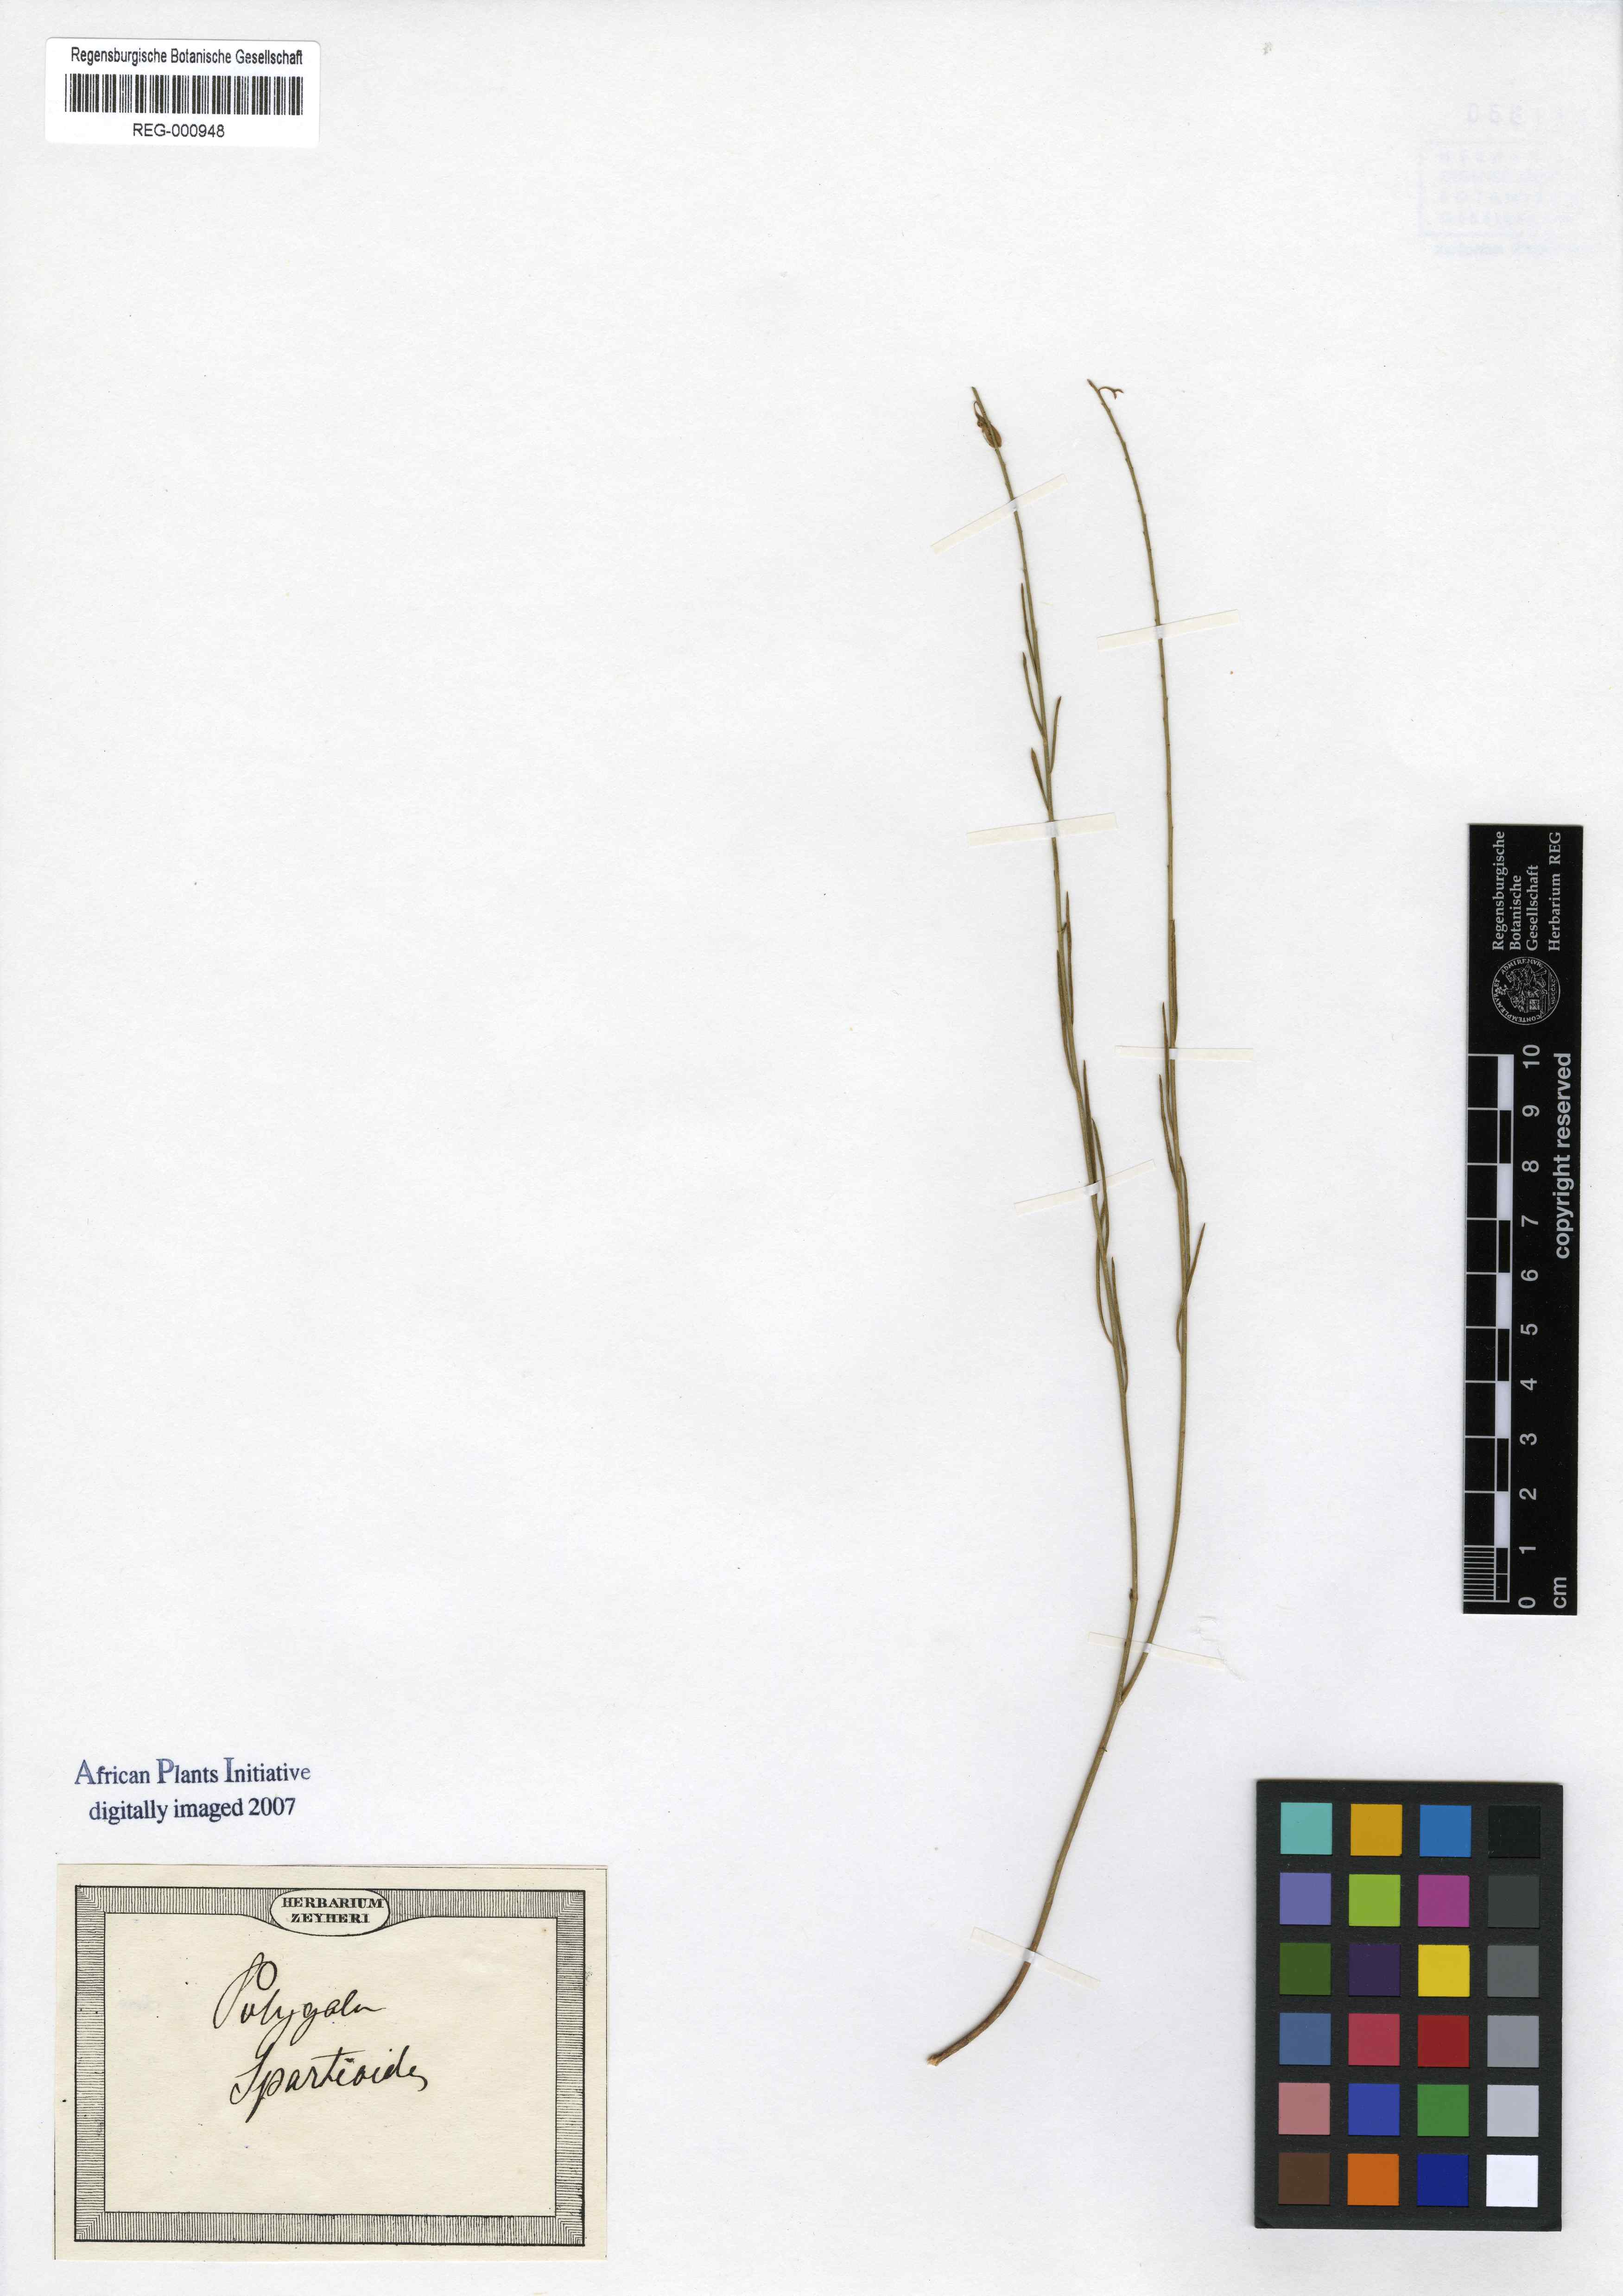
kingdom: Plantae
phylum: Tracheophyta
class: Magnoliopsida
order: Fabales
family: Polygalaceae
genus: Polygala
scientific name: Polygala virgata
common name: Milkwort
